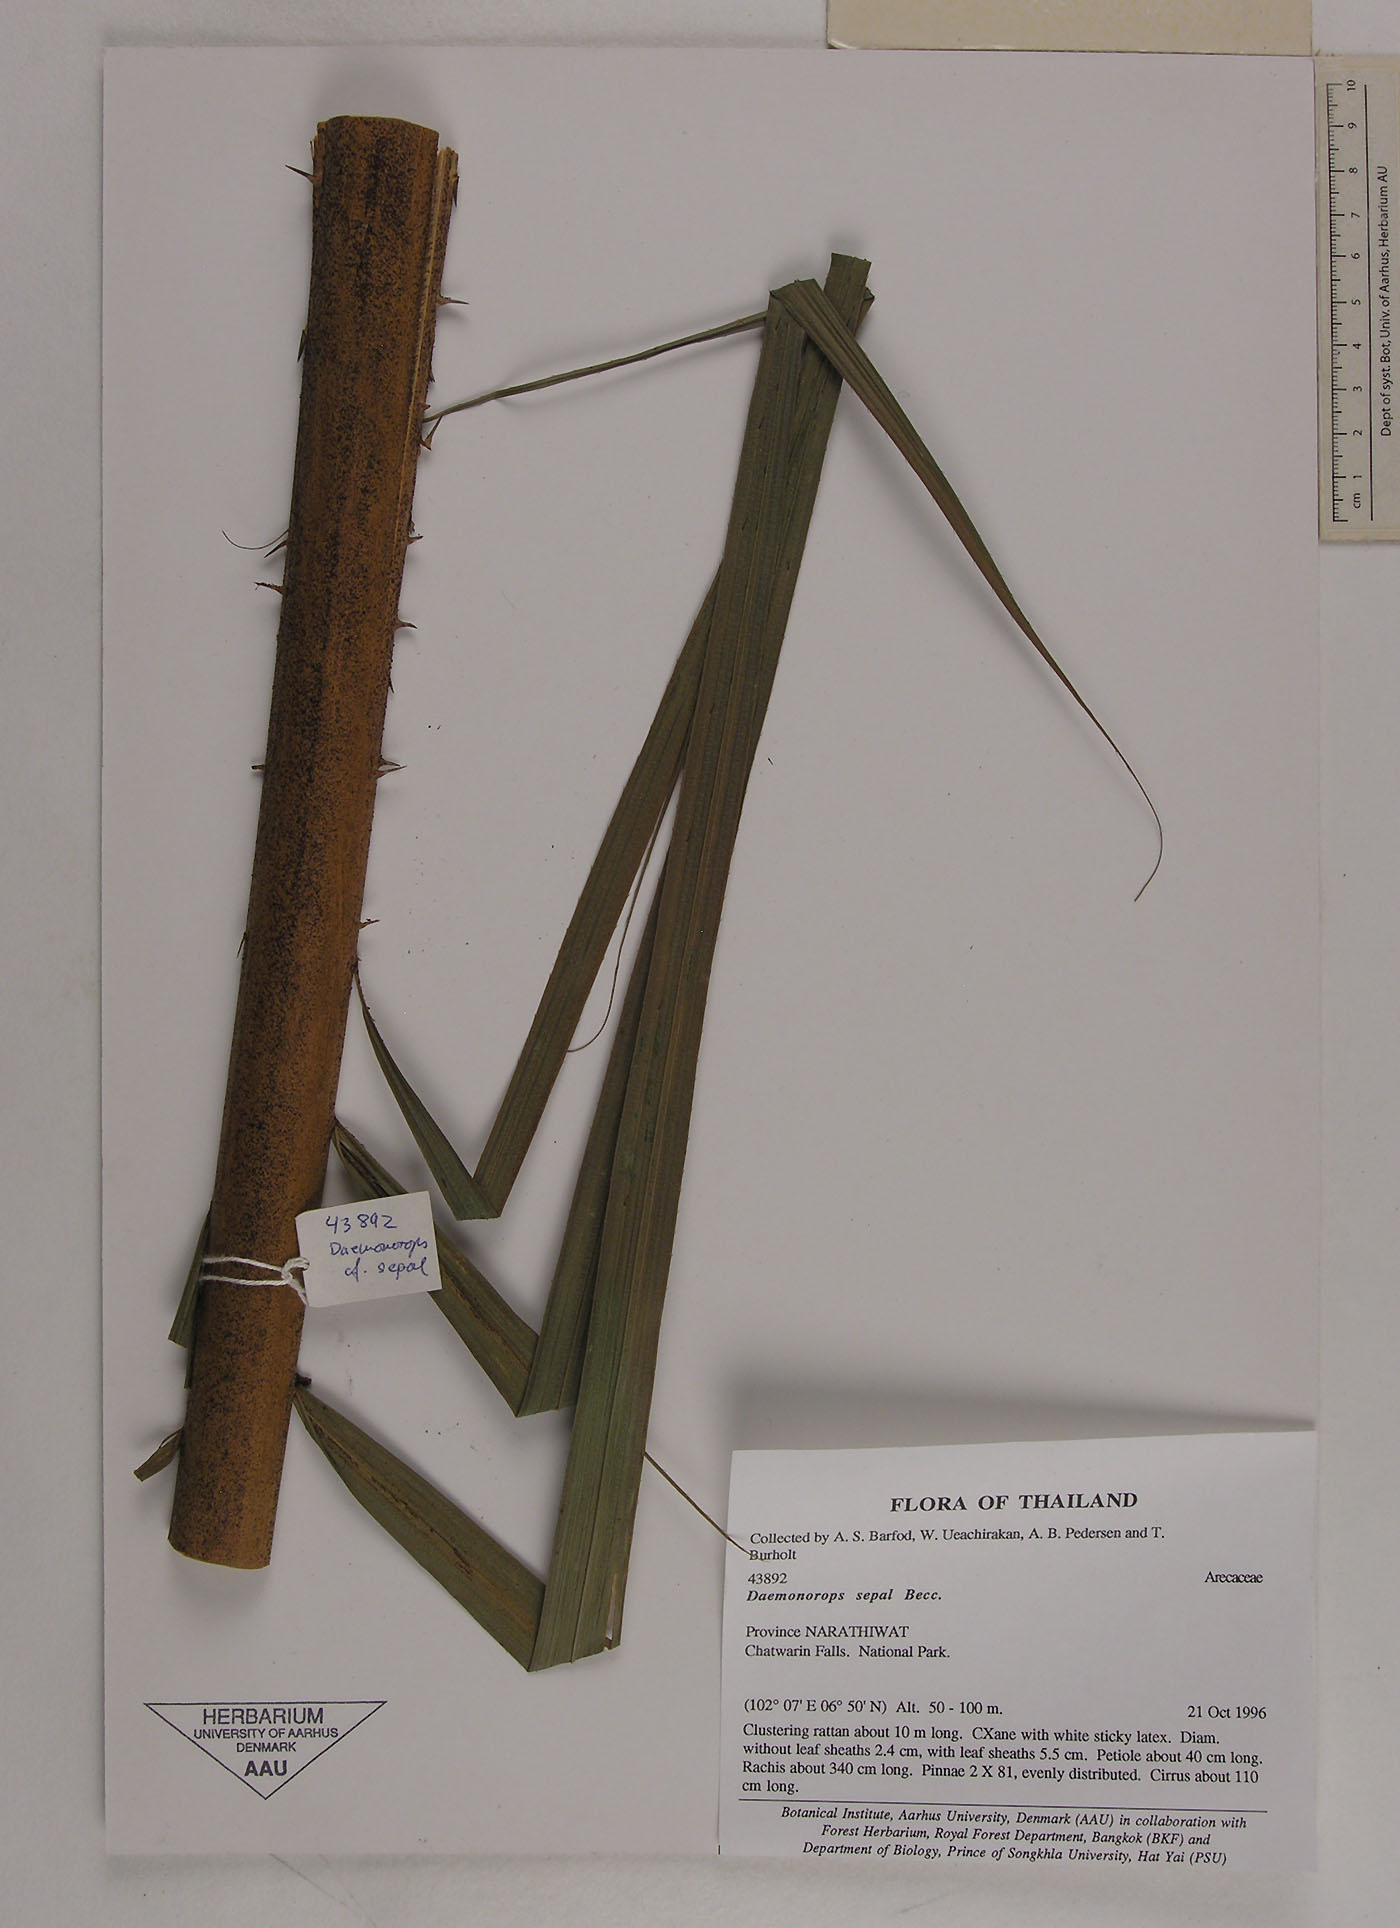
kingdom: Plantae
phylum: Tracheophyta
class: Liliopsida
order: Arecales
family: Arecaceae
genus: Calamus
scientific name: Calamus melanochaetes
